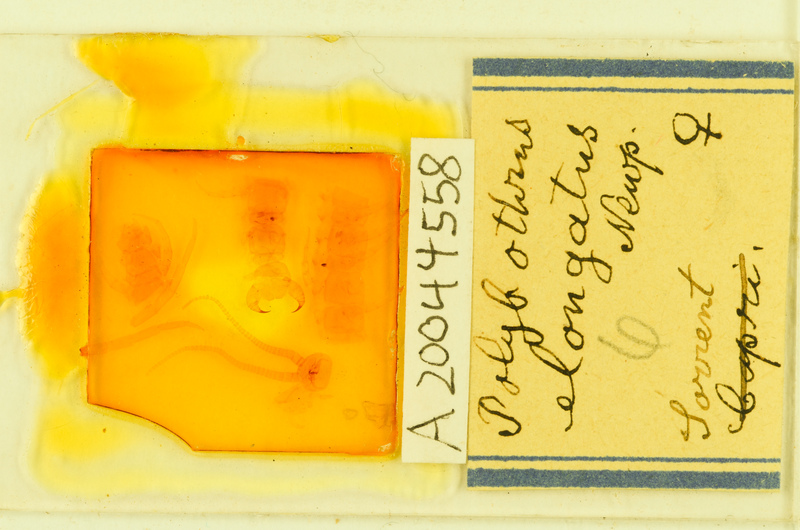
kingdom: Animalia
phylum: Arthropoda
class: Chilopoda
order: Lithobiomorpha
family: Lithobiidae
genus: Polybothrus
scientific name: Polybothrus
